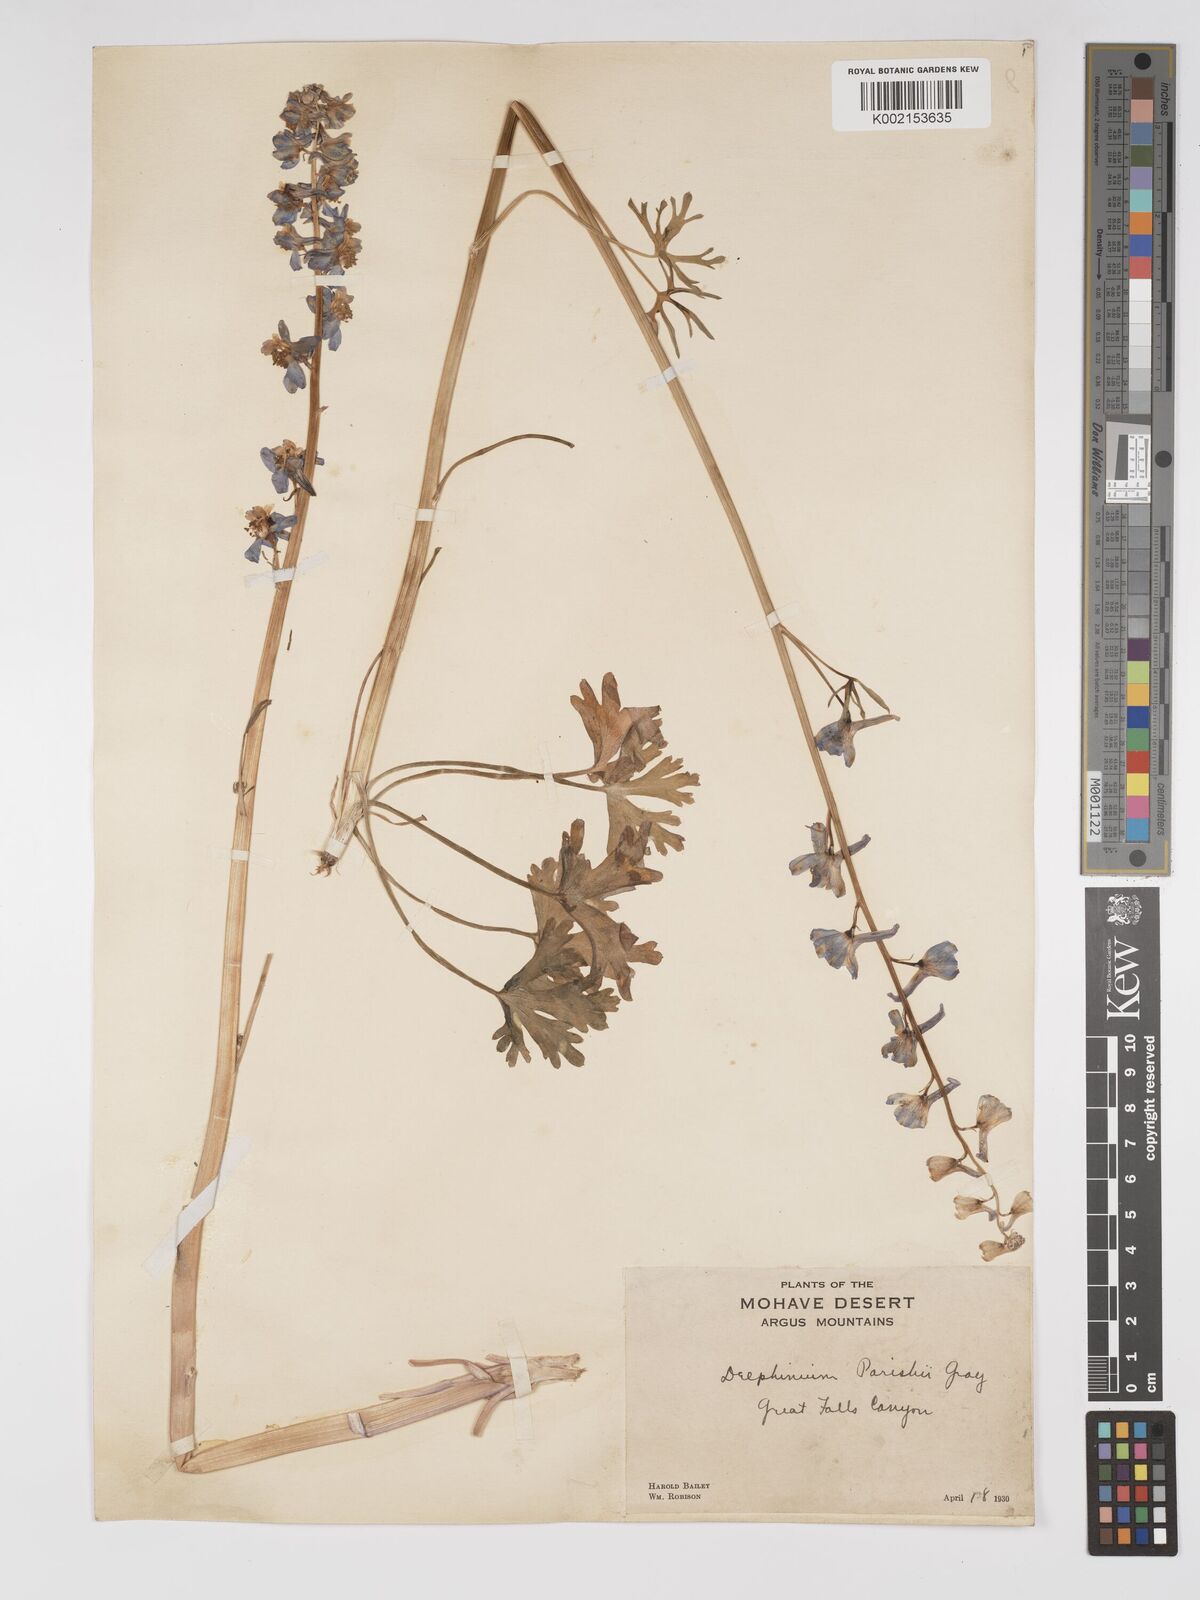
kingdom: Plantae
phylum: Tracheophyta
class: Magnoliopsida
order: Ranunculales
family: Ranunculaceae
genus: Delphinium
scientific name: Delphinium parishii
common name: Apache larkspur
